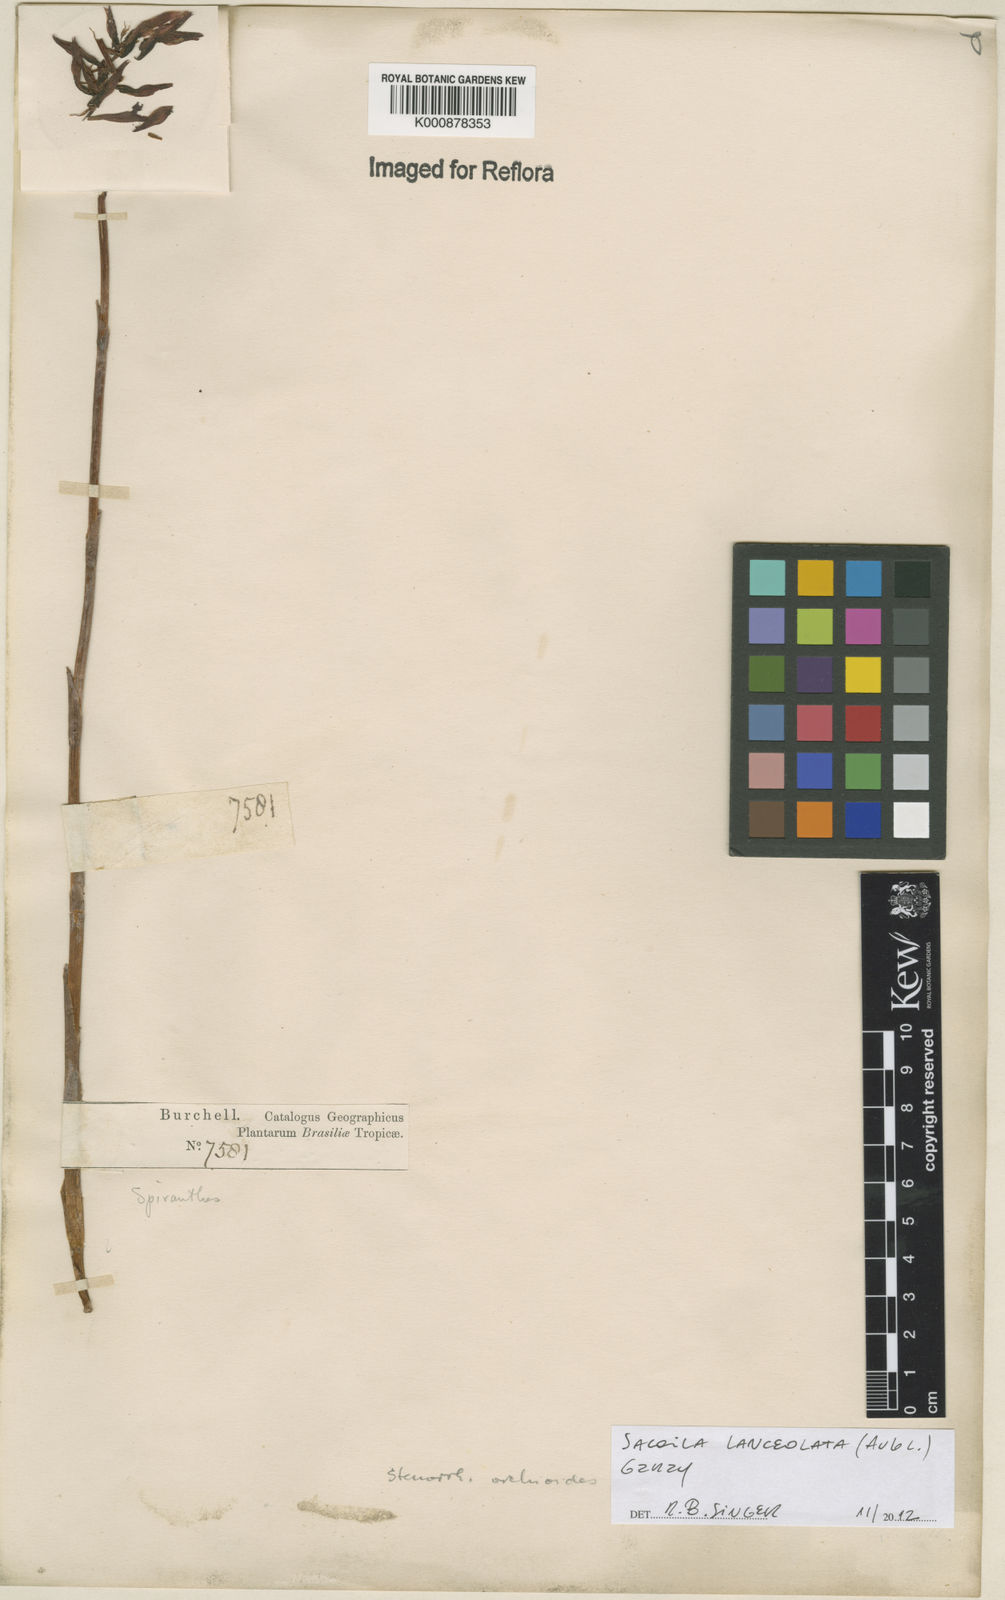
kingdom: Plantae
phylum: Tracheophyta
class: Liliopsida
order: Asparagales
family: Orchidaceae
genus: Sacoila
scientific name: Sacoila lanceolata
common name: Leafless beaked ladiestresses
